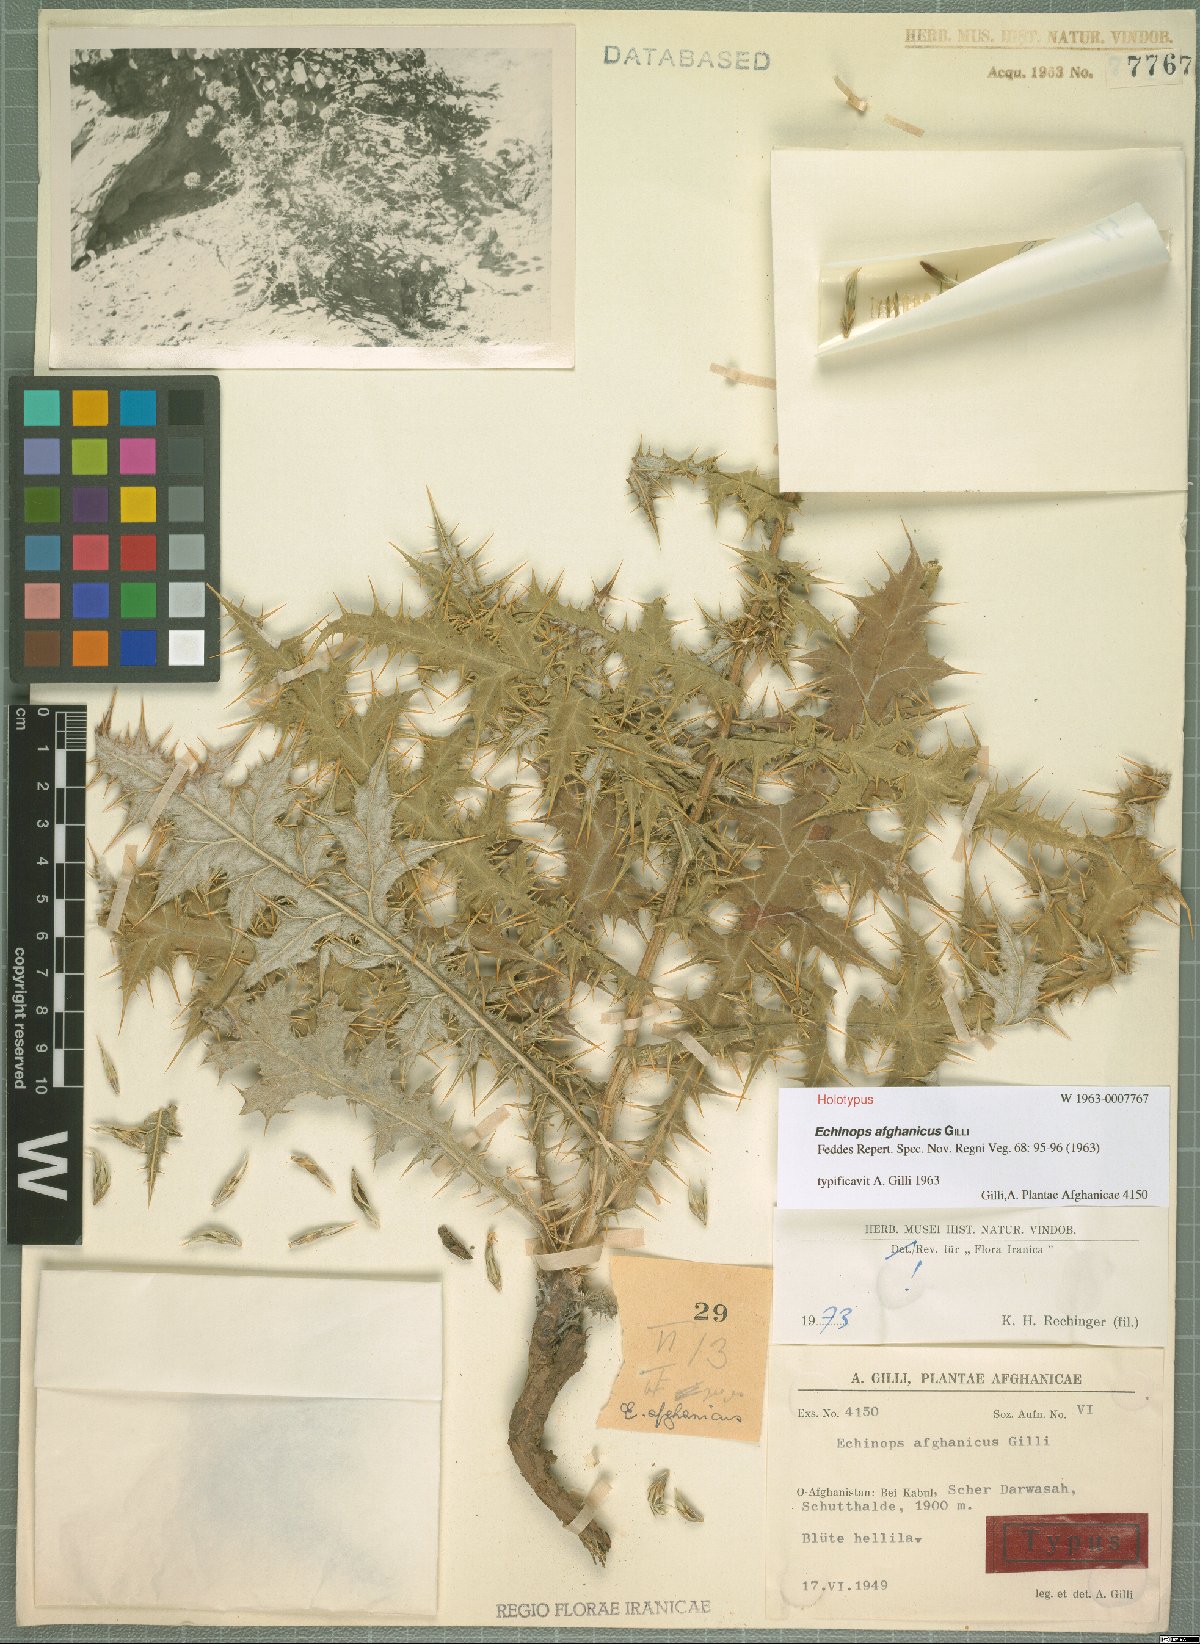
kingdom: Plantae
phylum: Tracheophyta
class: Magnoliopsida
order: Asterales
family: Asteraceae
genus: Echinops
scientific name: Echinops afghanicus
